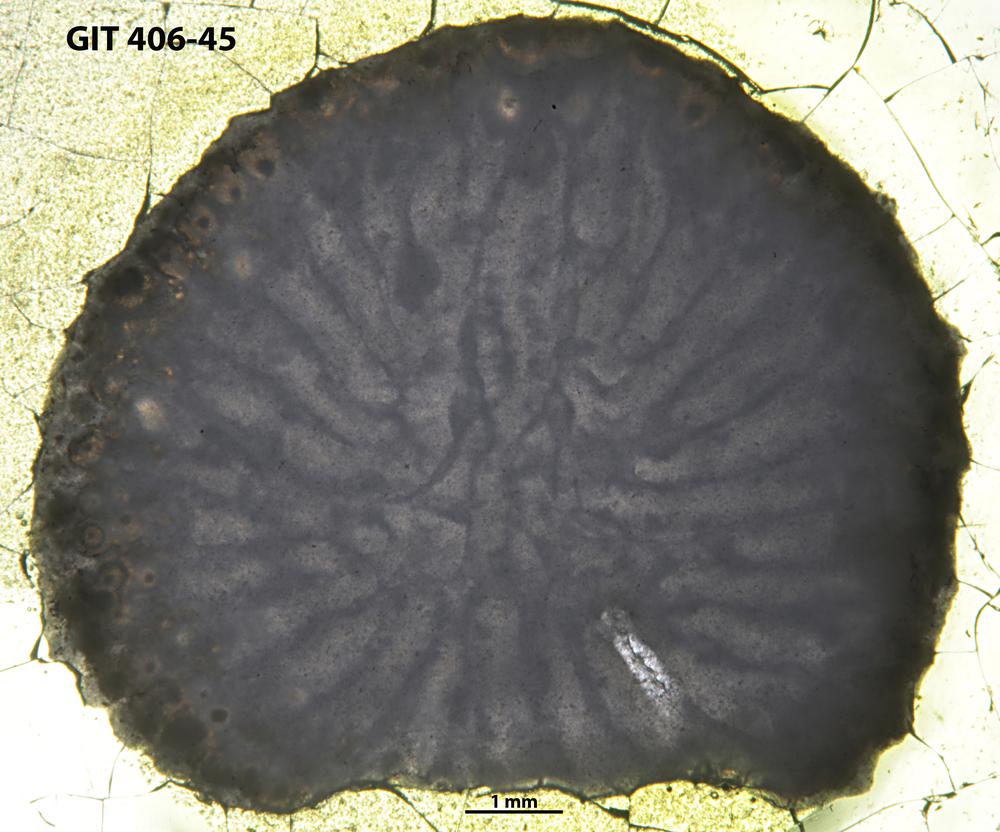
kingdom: Animalia
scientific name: Animalia
